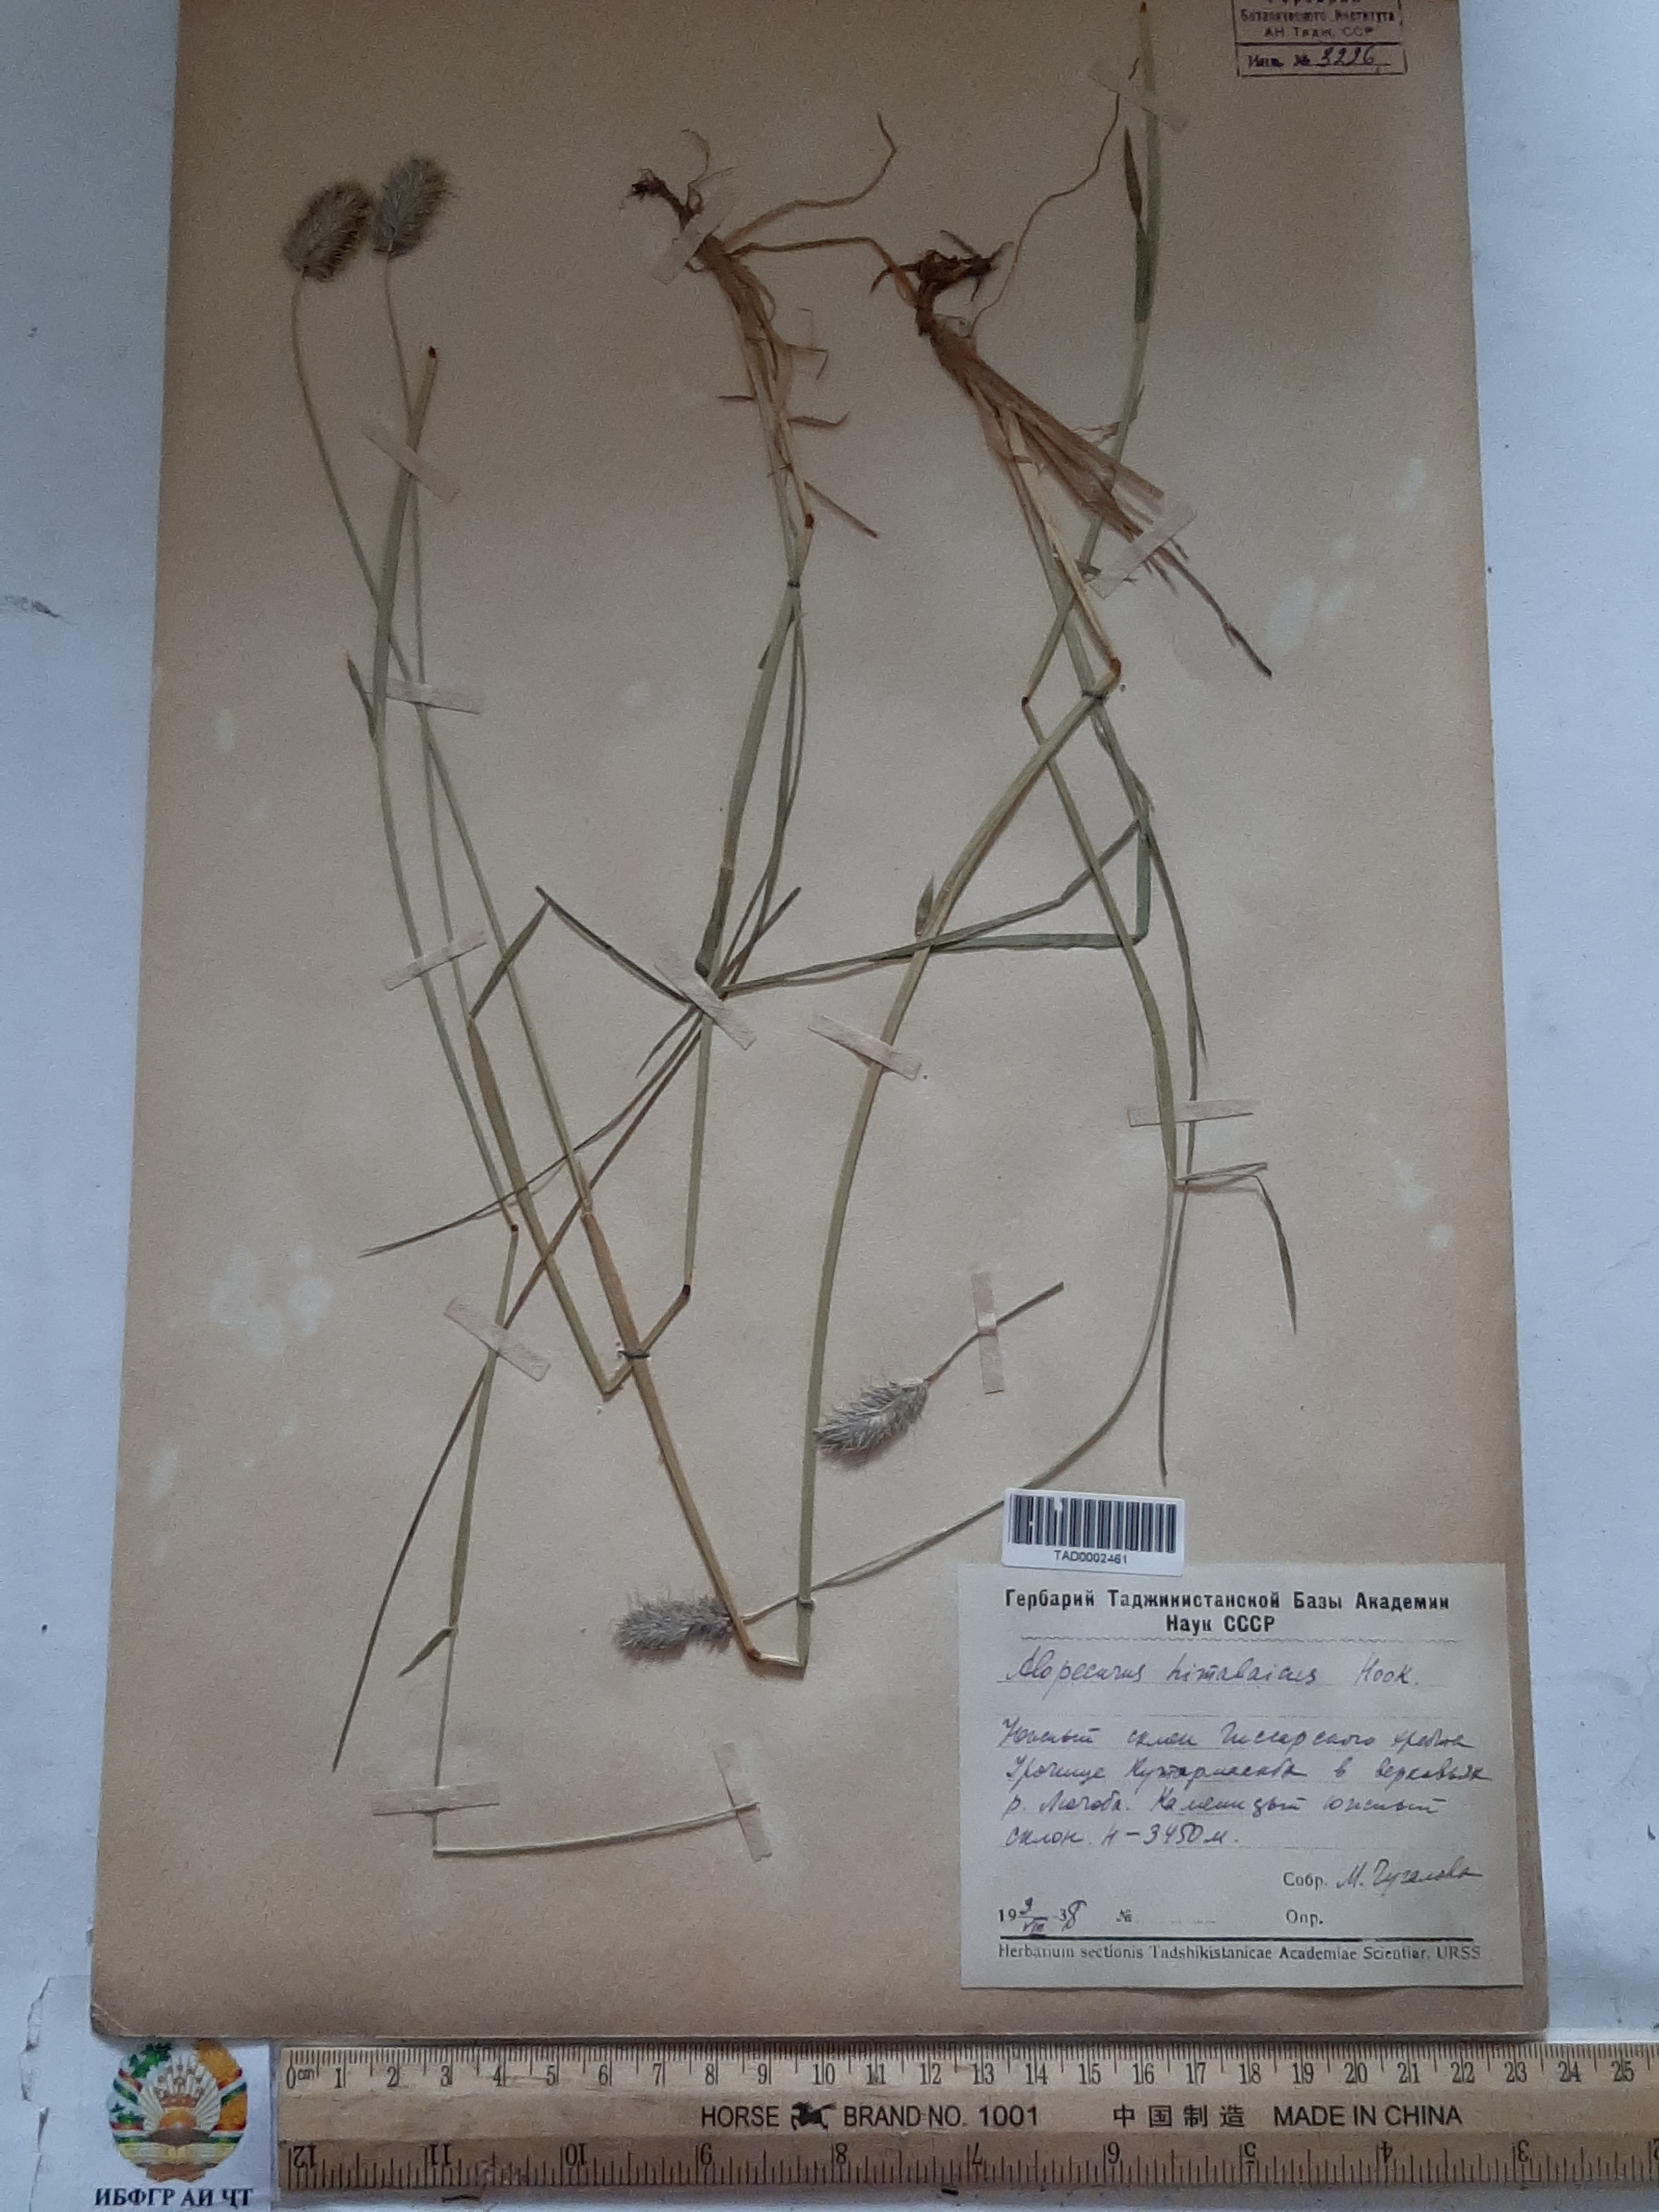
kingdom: Plantae
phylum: Tracheophyta
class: Liliopsida
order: Poales
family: Poaceae
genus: Alopecurus
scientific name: Alopecurus himalaicus
